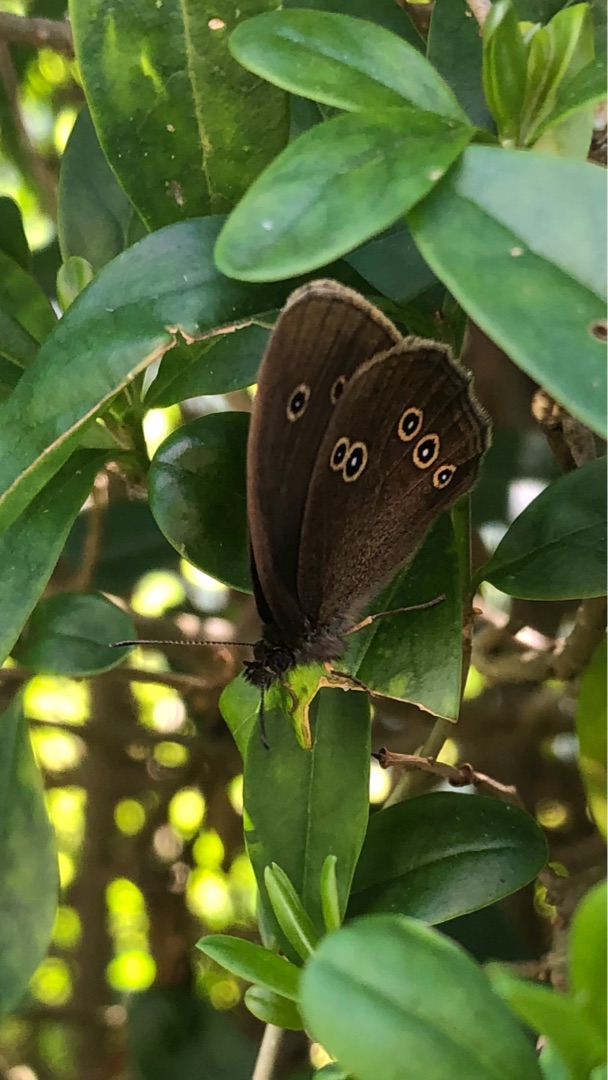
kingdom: Animalia
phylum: Arthropoda
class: Insecta
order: Lepidoptera
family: Nymphalidae
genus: Aphantopus
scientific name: Aphantopus hyperantus
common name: Engrandøje
